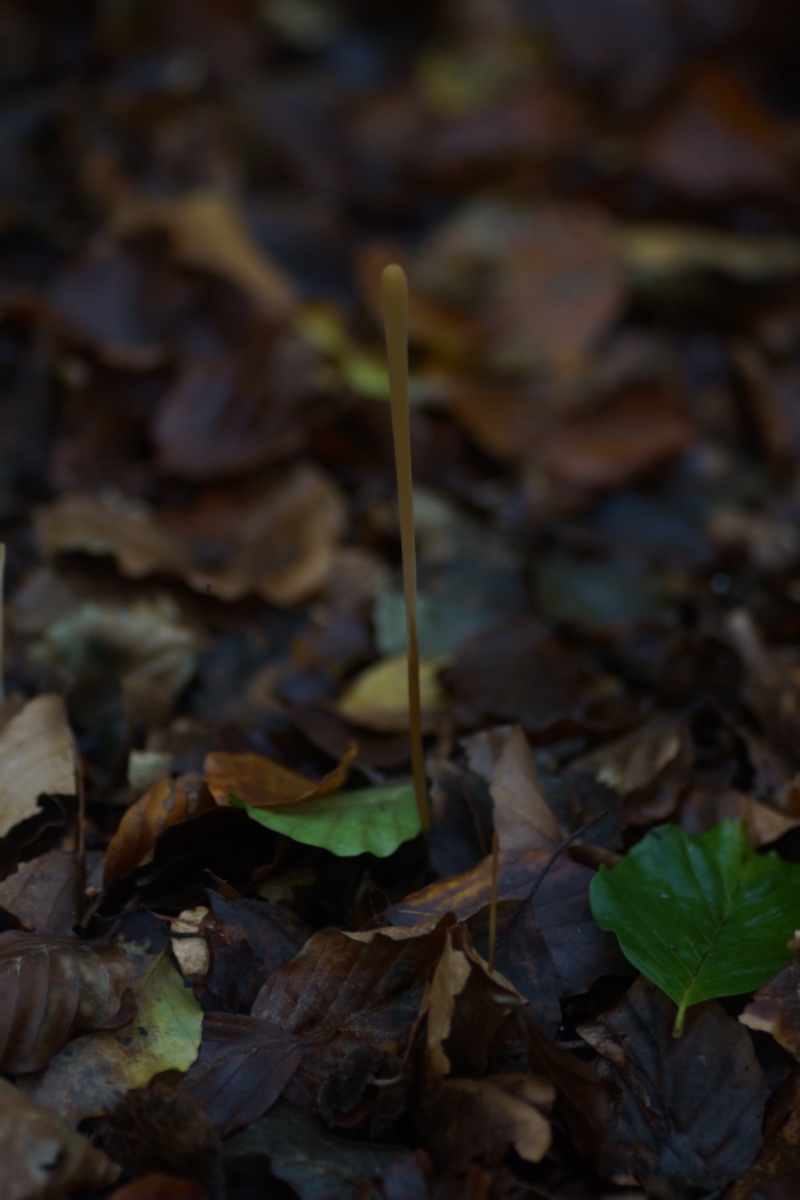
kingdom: Fungi
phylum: Basidiomycota
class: Agaricomycetes
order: Agaricales
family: Typhulaceae
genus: Typhula
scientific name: Typhula fistulosa
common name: pibet rørkølle
